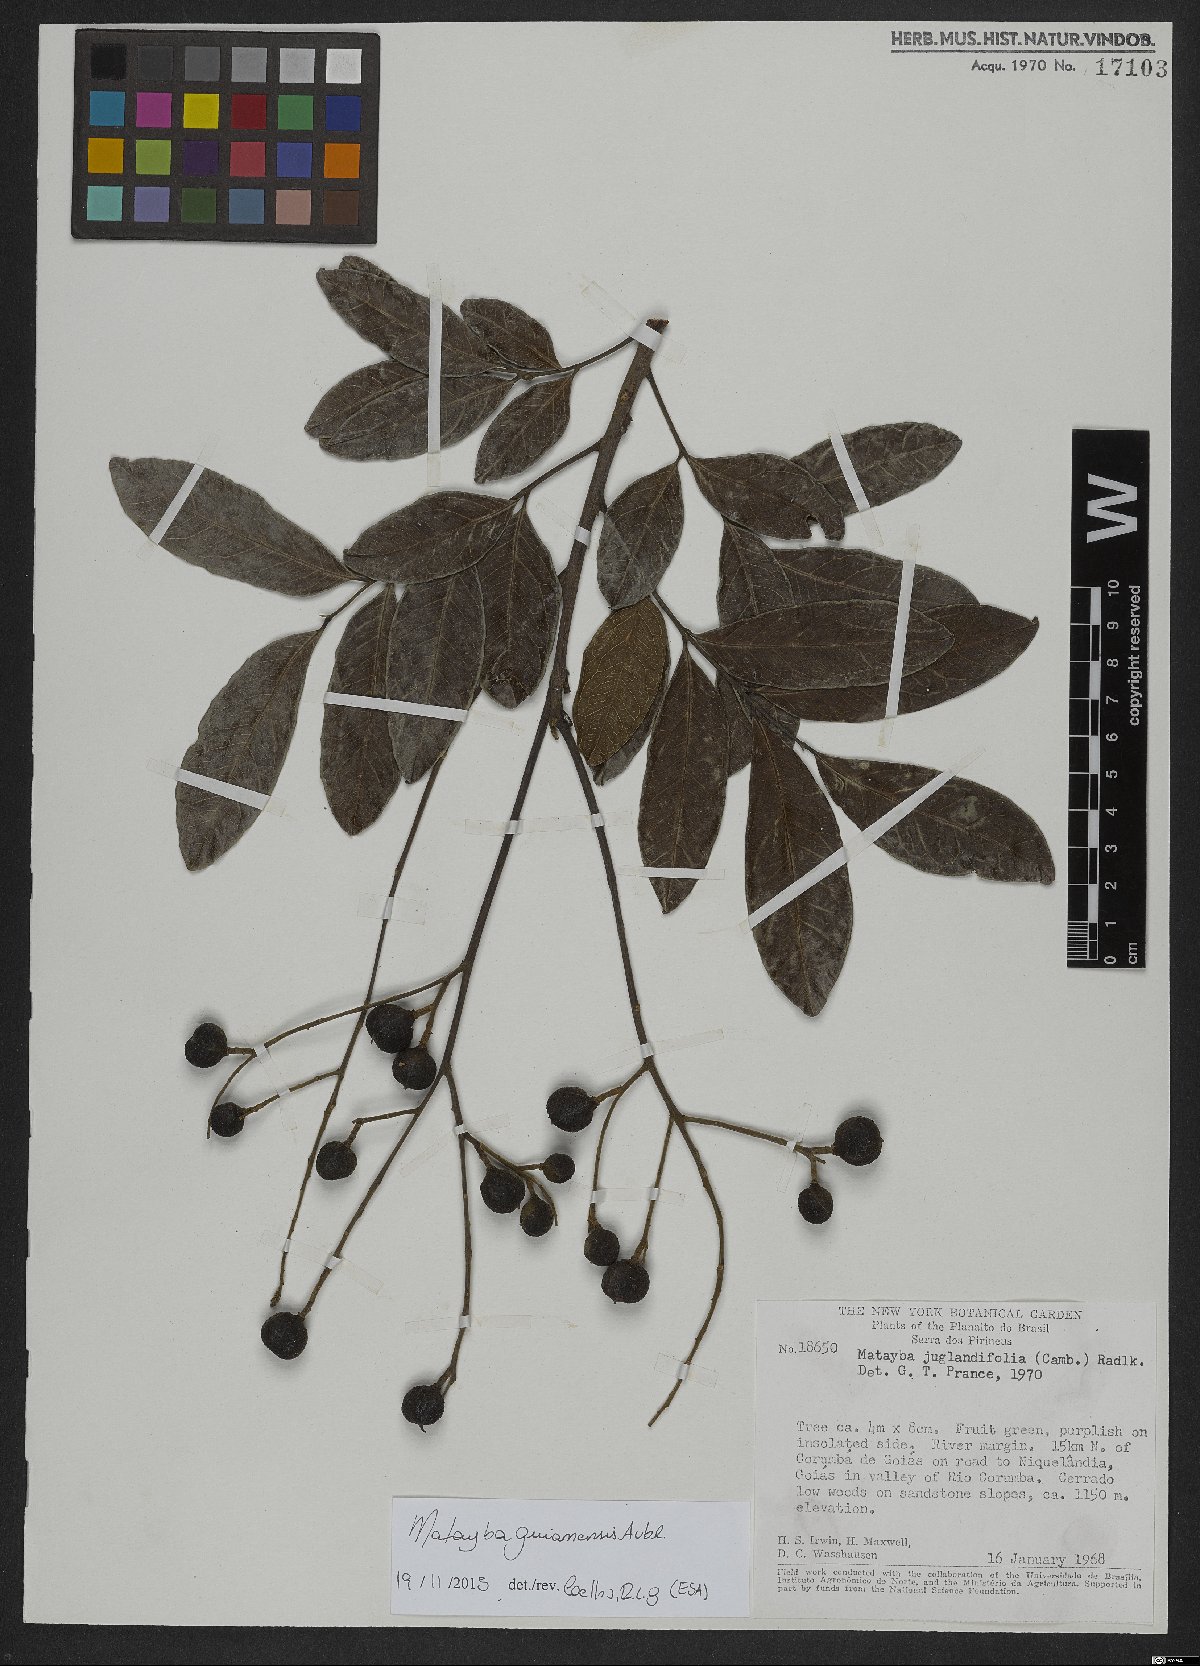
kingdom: Plantae
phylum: Tracheophyta
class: Magnoliopsida
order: Sapindales
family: Sapindaceae
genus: Matayba
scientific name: Matayba guianensis
